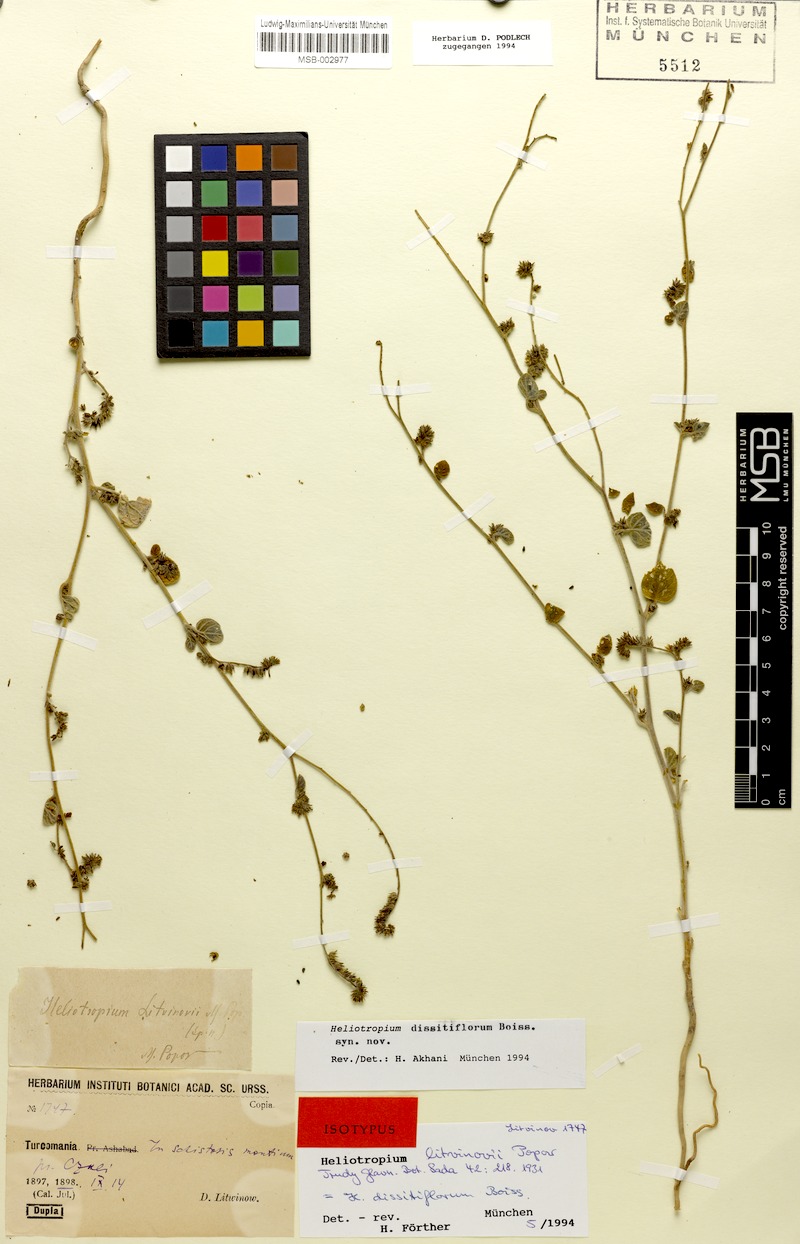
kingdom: Plantae
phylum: Tracheophyta
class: Magnoliopsida
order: Boraginales
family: Heliotropiaceae
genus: Heliotropium
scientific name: Heliotropium dissitiflorum
